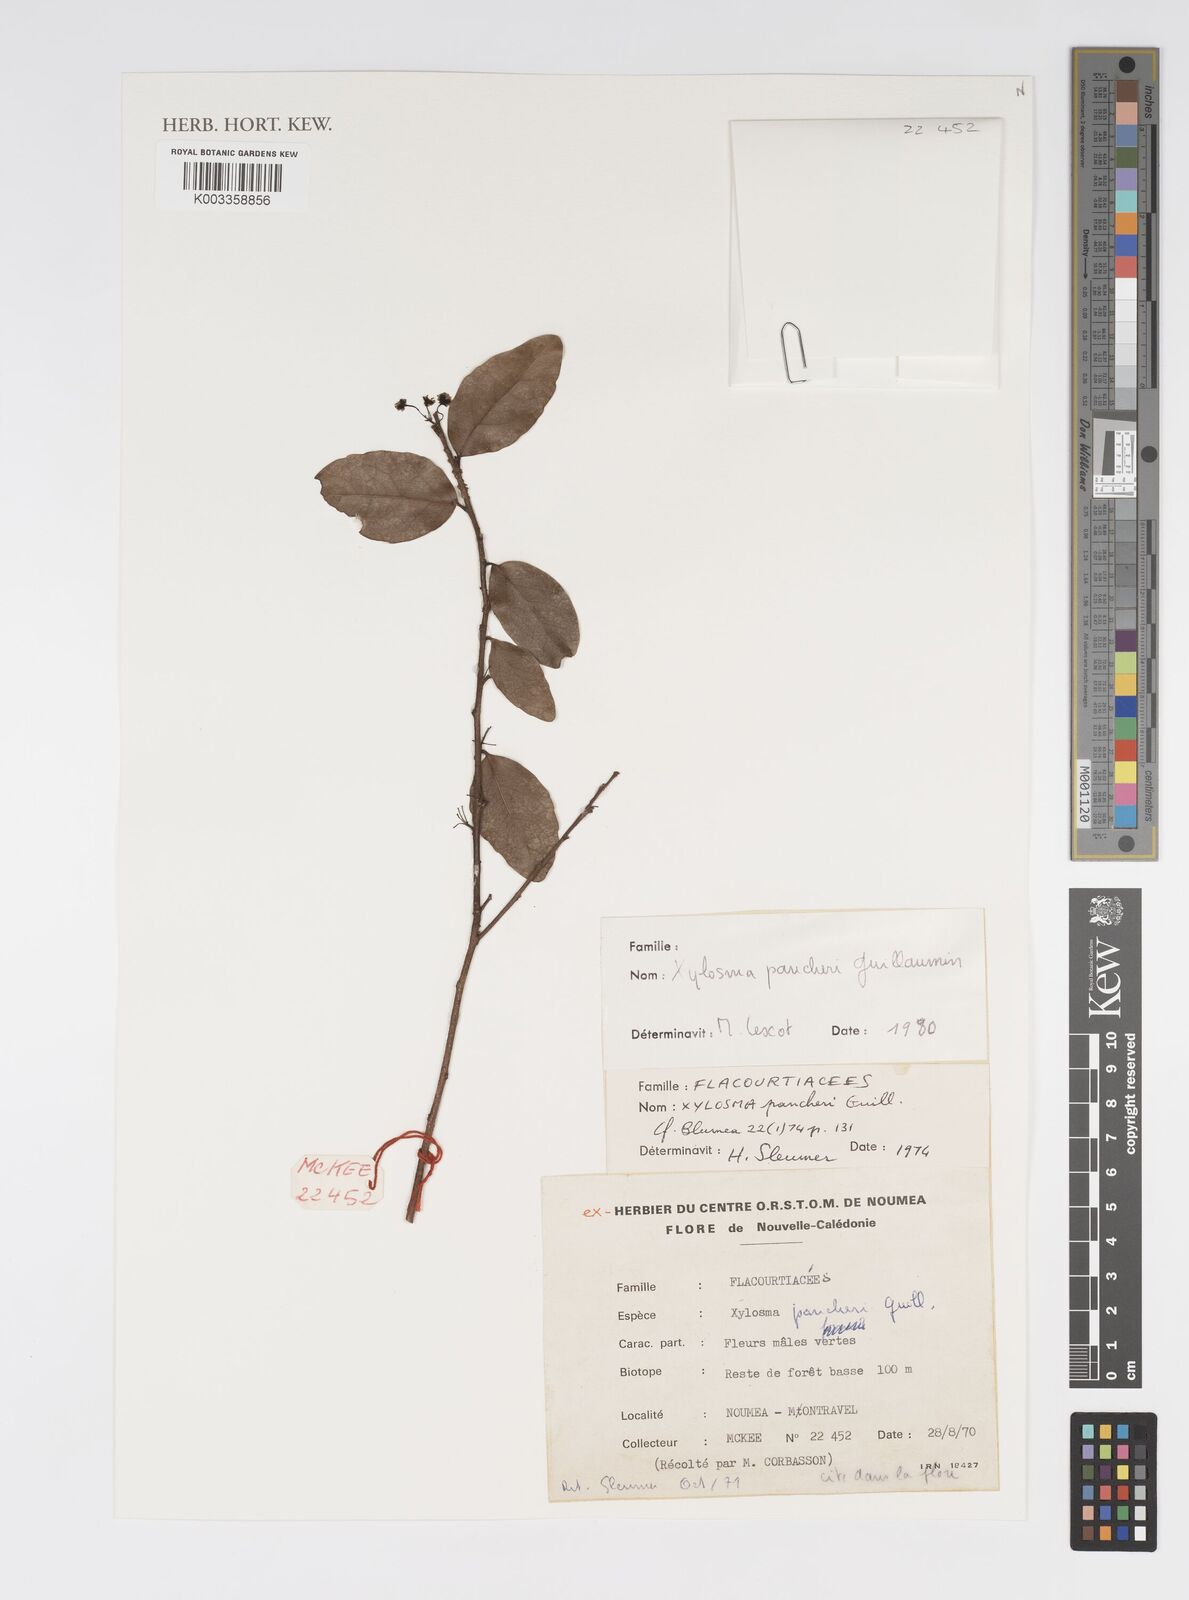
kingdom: Plantae
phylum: Tracheophyta
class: Magnoliopsida
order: Malpighiales
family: Salicaceae
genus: Xylosma
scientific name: Xylosma pancheri
